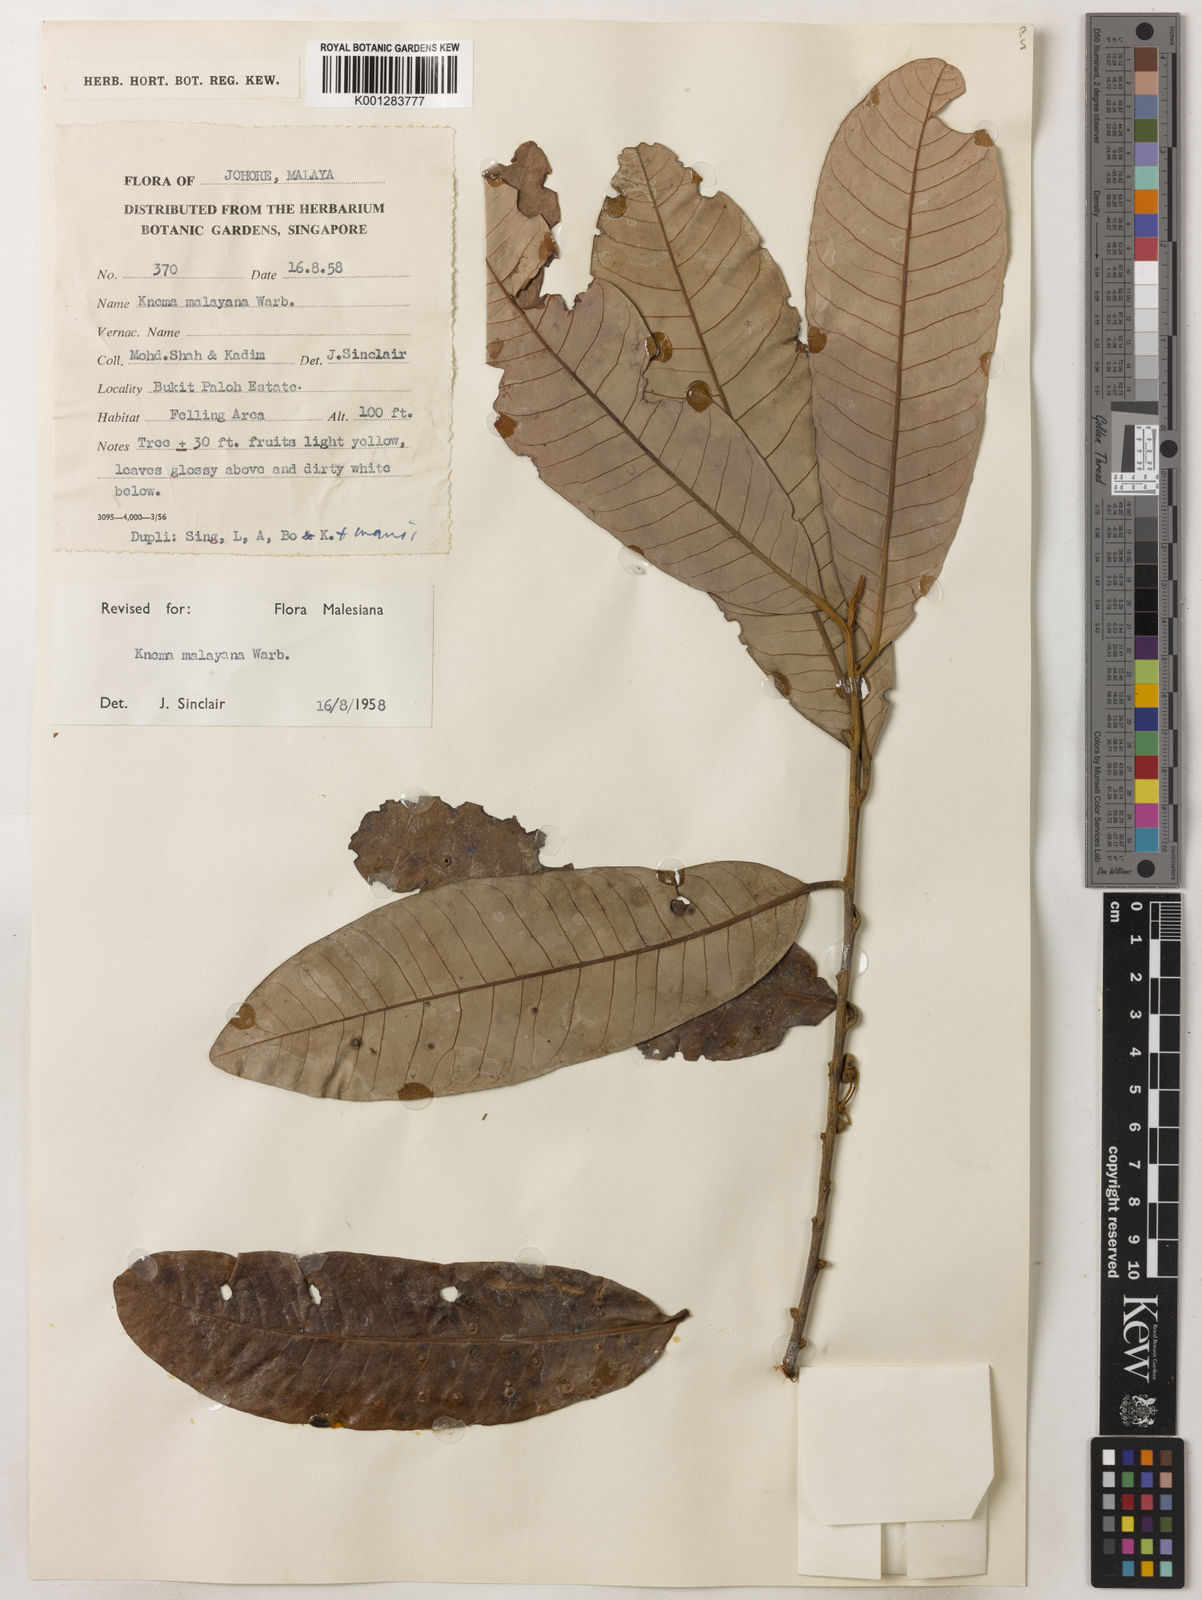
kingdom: Plantae
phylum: Tracheophyta
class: Magnoliopsida
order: Magnoliales
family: Myristicaceae
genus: Knema
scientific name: Knema malayana
